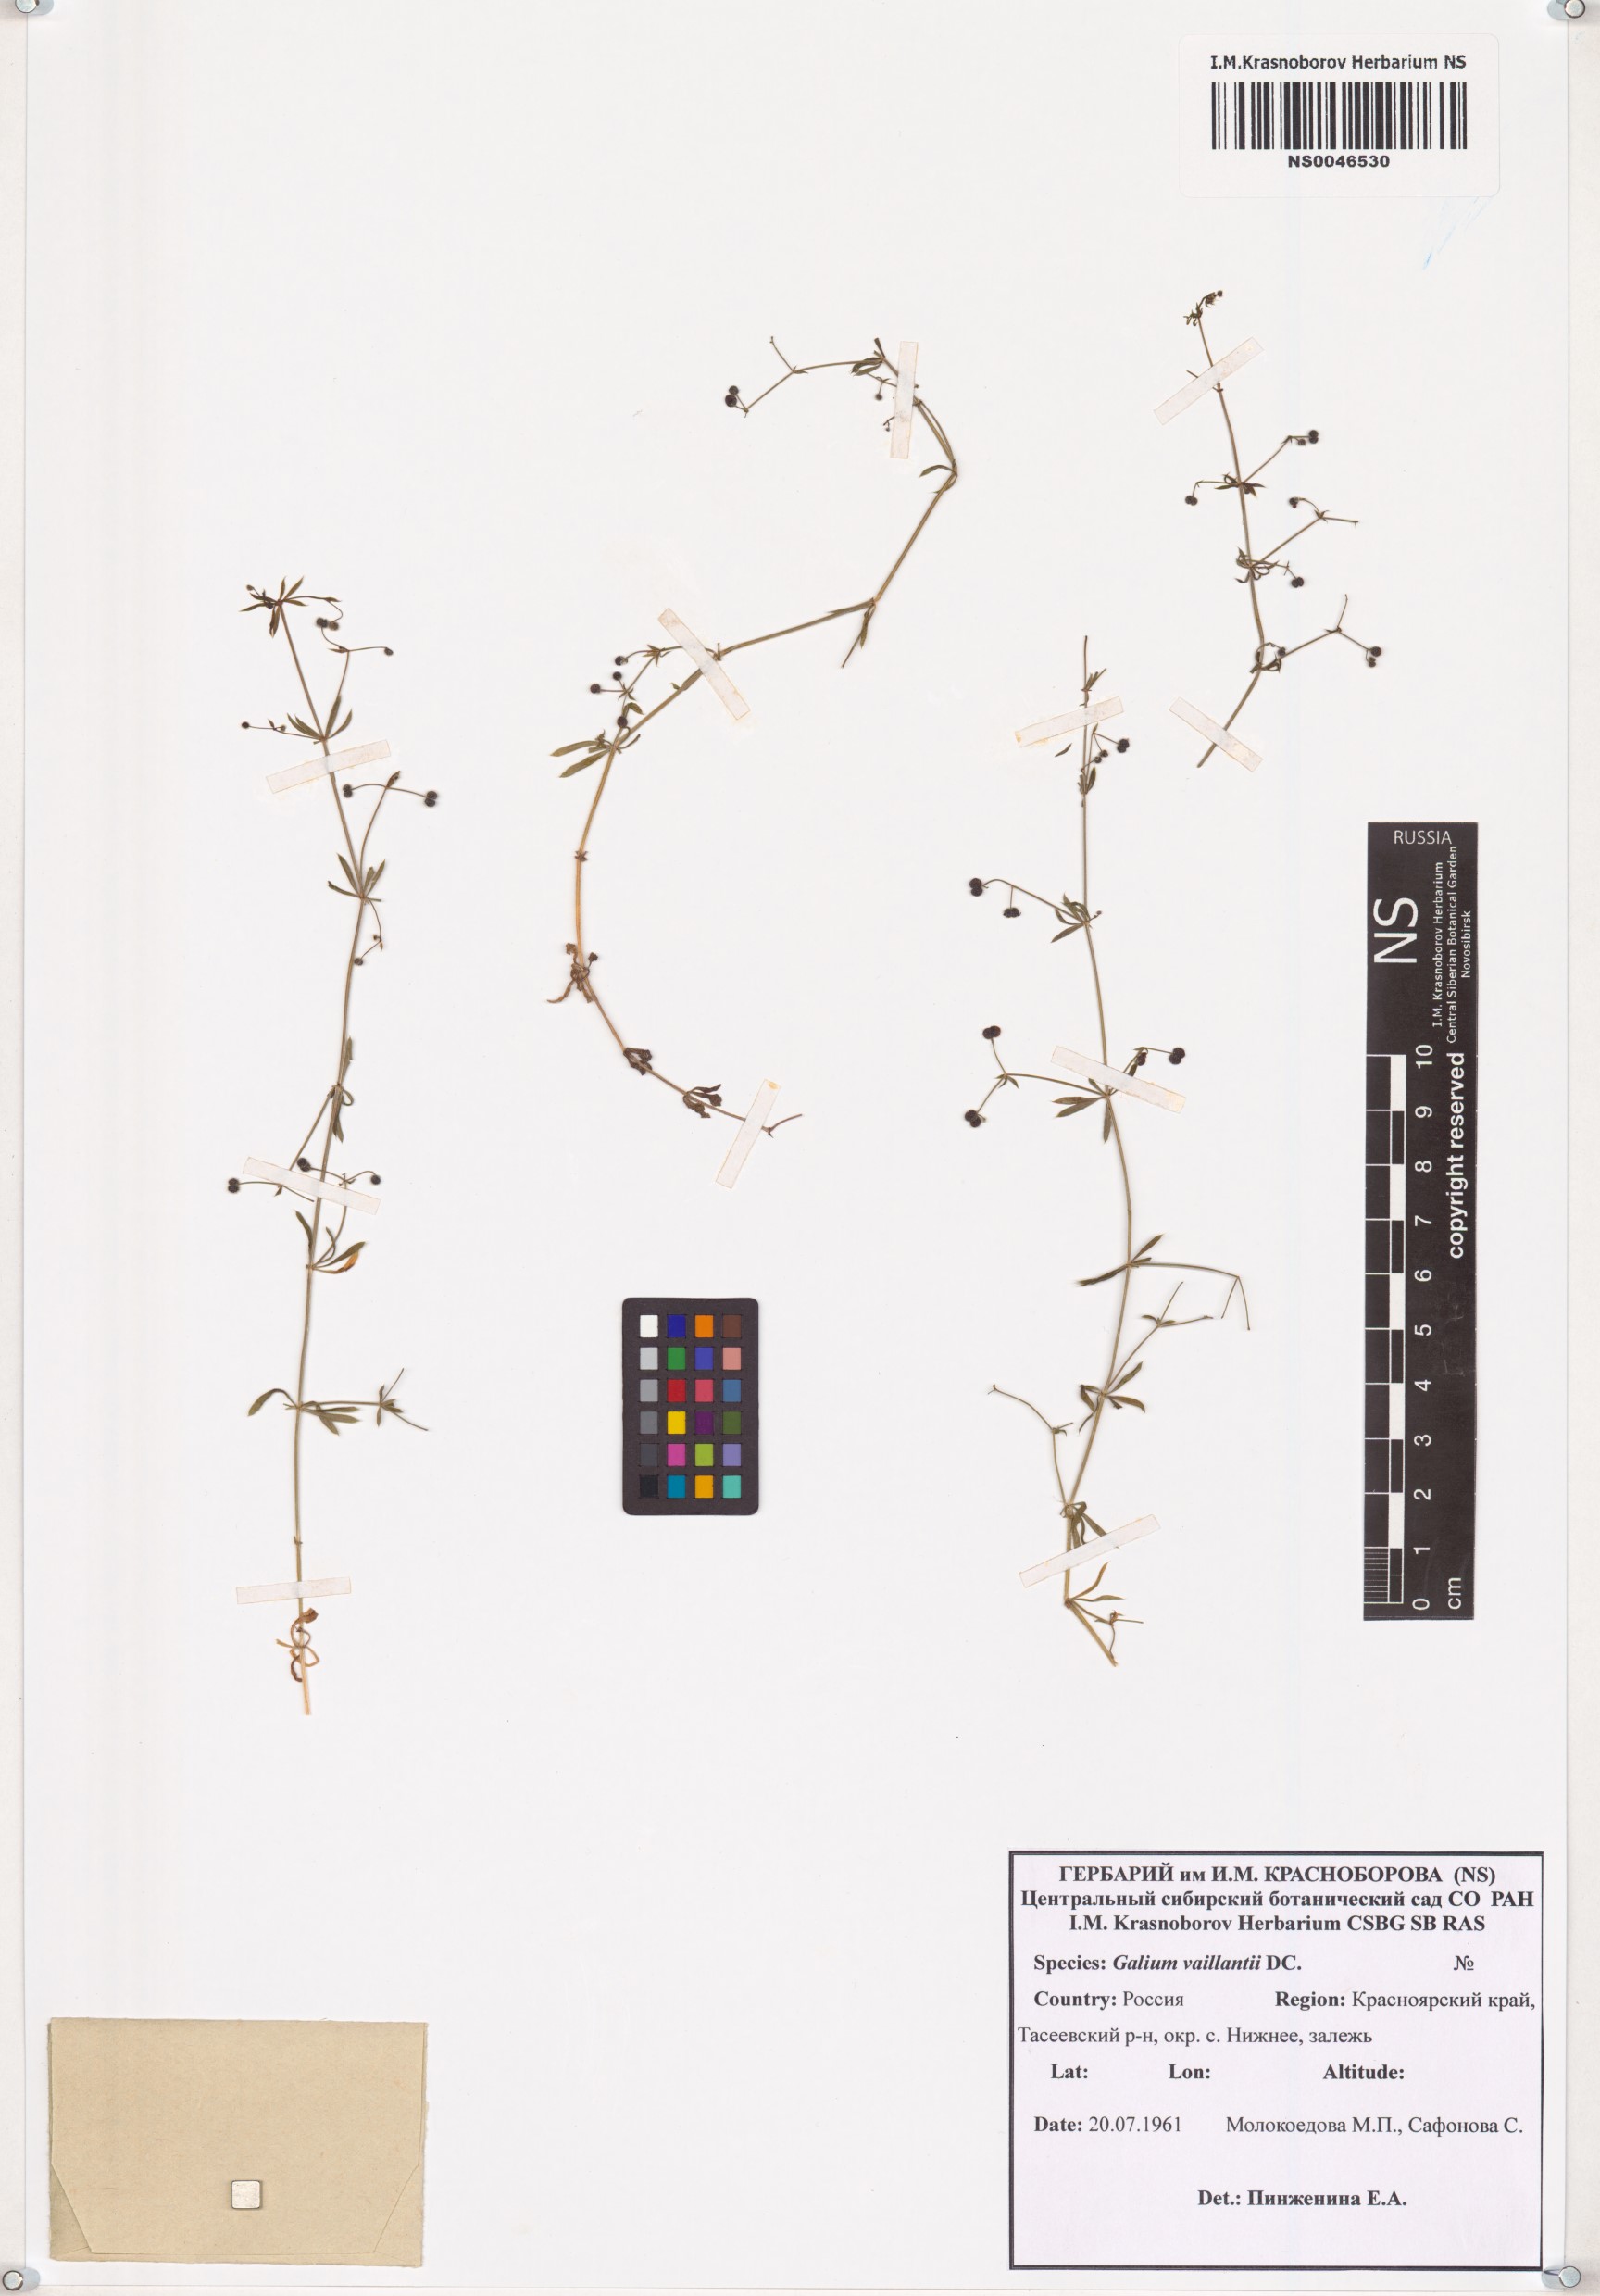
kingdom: Plantae
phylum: Tracheophyta
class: Magnoliopsida
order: Gentianales
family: Rubiaceae
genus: Galium
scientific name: Galium spurium
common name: False cleavers
